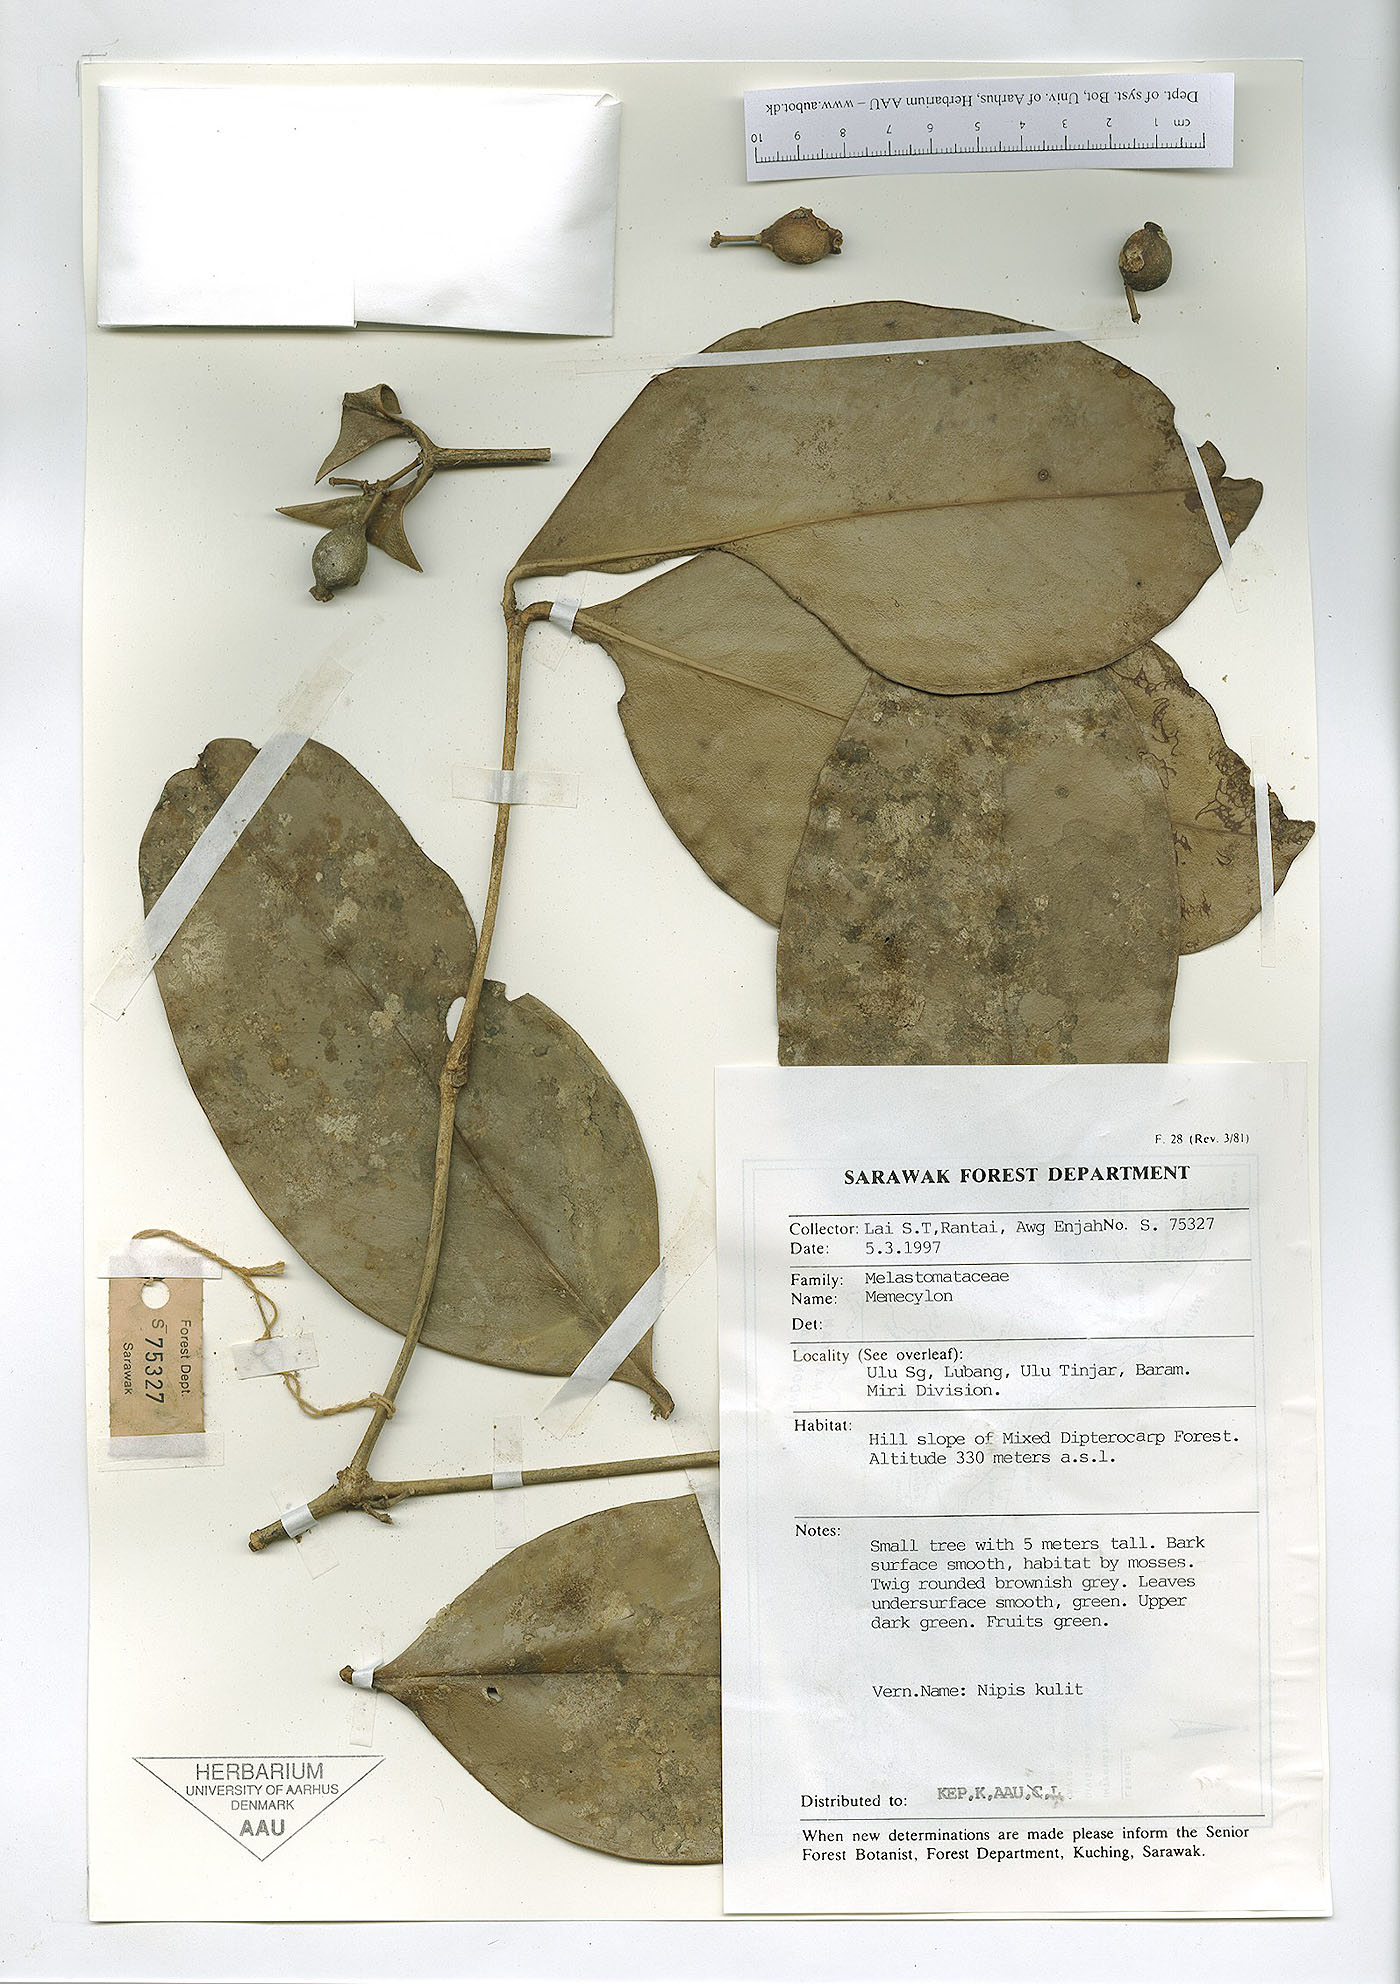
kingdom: Plantae
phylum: Tracheophyta
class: Magnoliopsida
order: Myrtales
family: Melastomataceae
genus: Memecylon
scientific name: Memecylon
